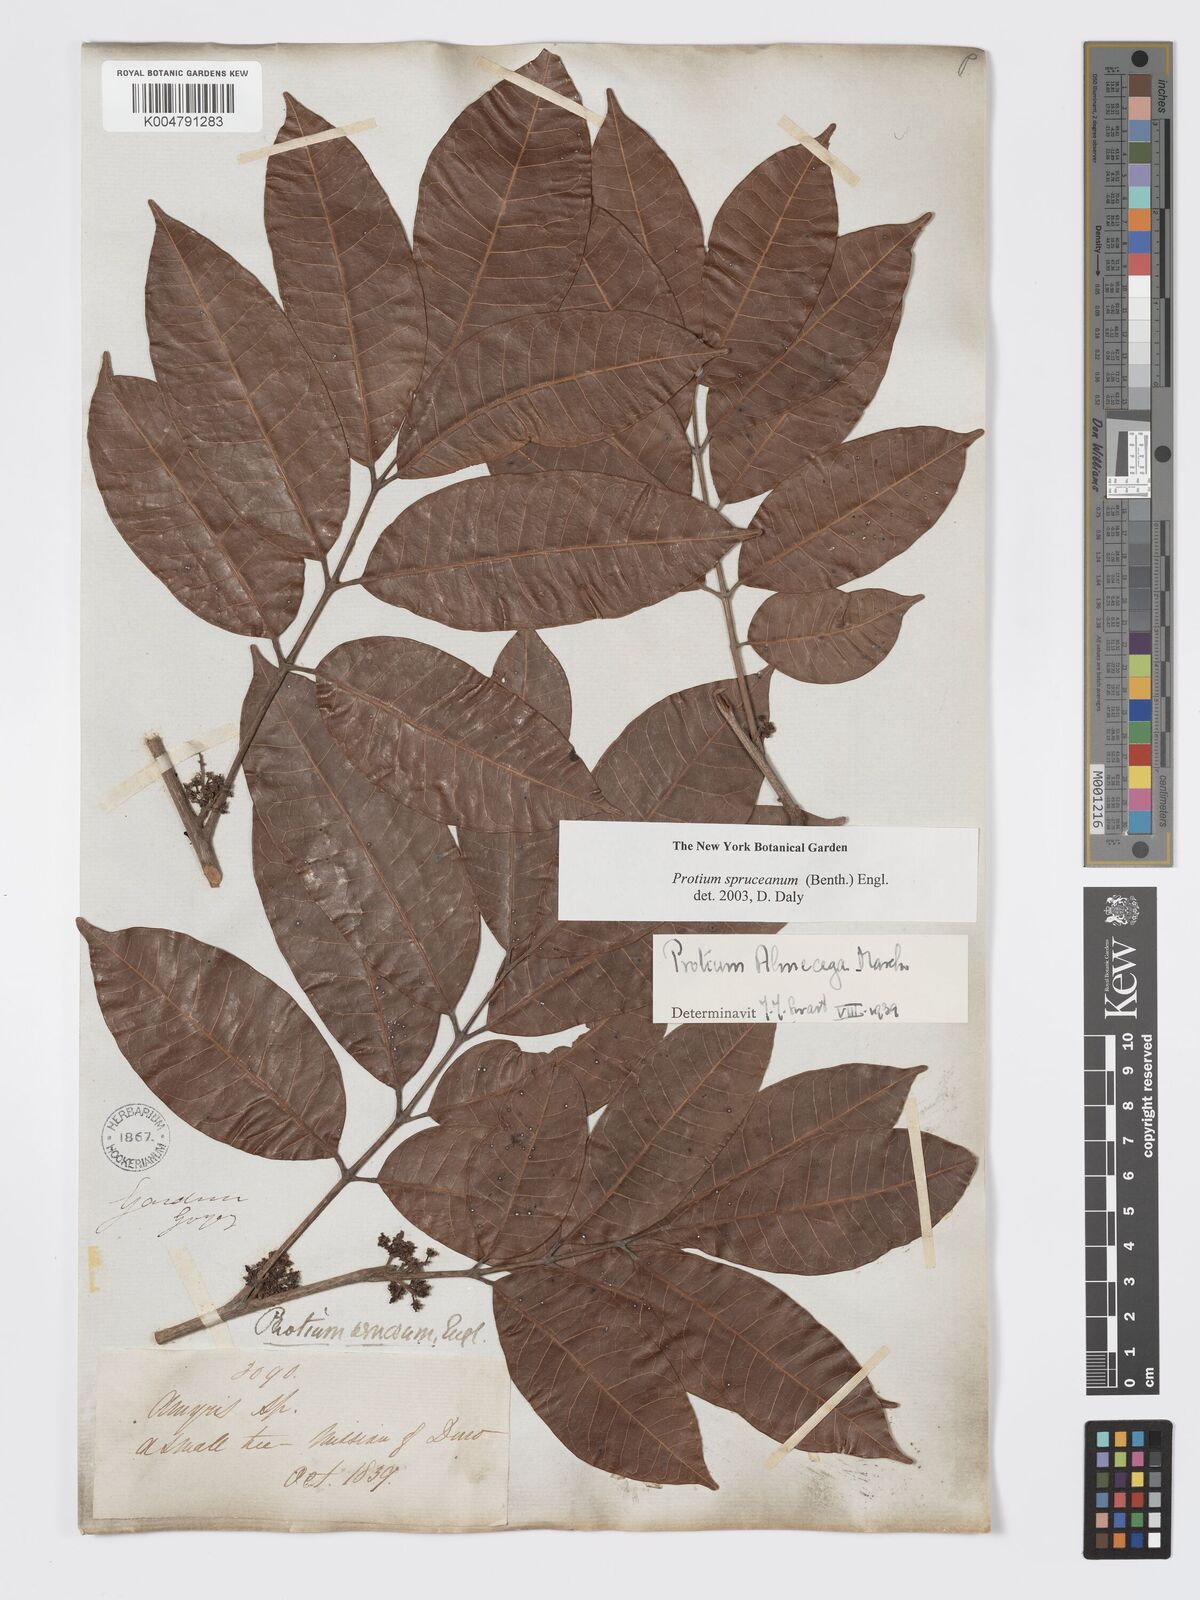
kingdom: Plantae
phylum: Tracheophyta
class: Magnoliopsida
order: Sapindales
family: Burseraceae
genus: Protium
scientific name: Protium spruceanum
